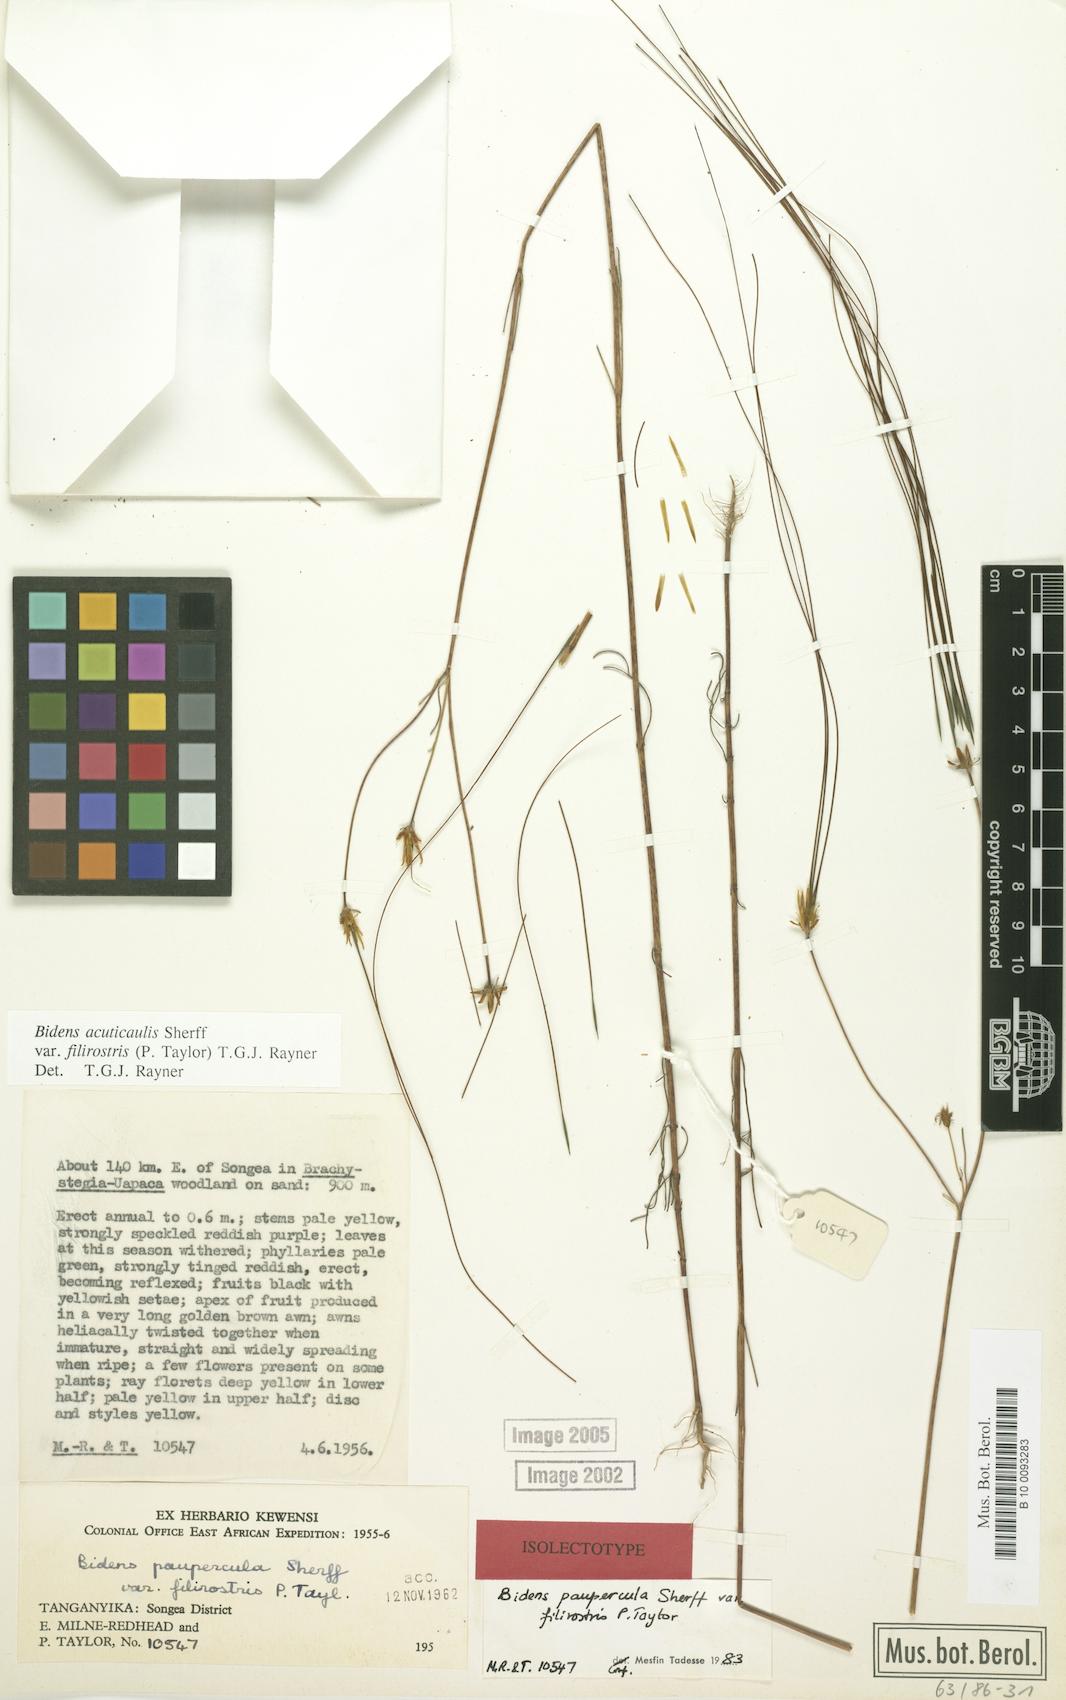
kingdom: Plantae
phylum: Tracheophyta
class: Magnoliopsida
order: Asterales
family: Asteraceae
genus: Bidens
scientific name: Bidens acuticaulis
